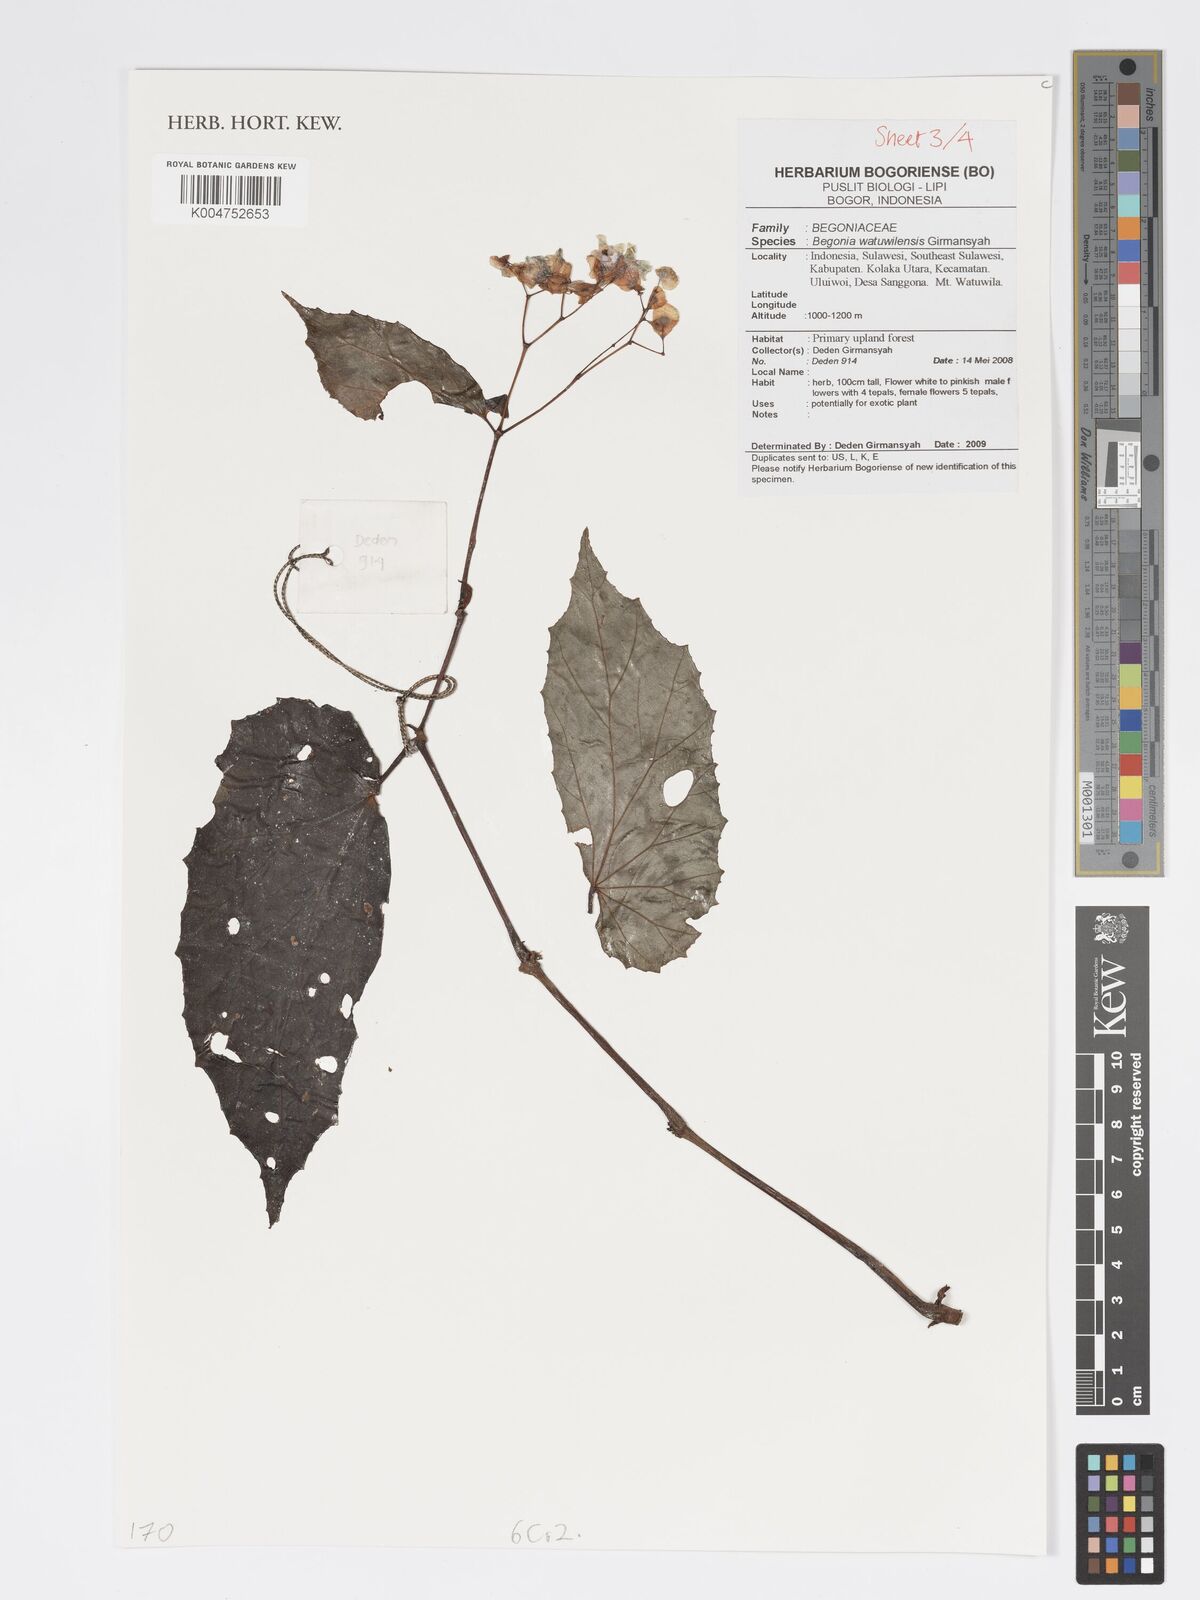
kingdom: Plantae
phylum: Tracheophyta
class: Magnoliopsida
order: Cucurbitales
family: Begoniaceae
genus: Begonia
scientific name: Begonia watuwilensis
